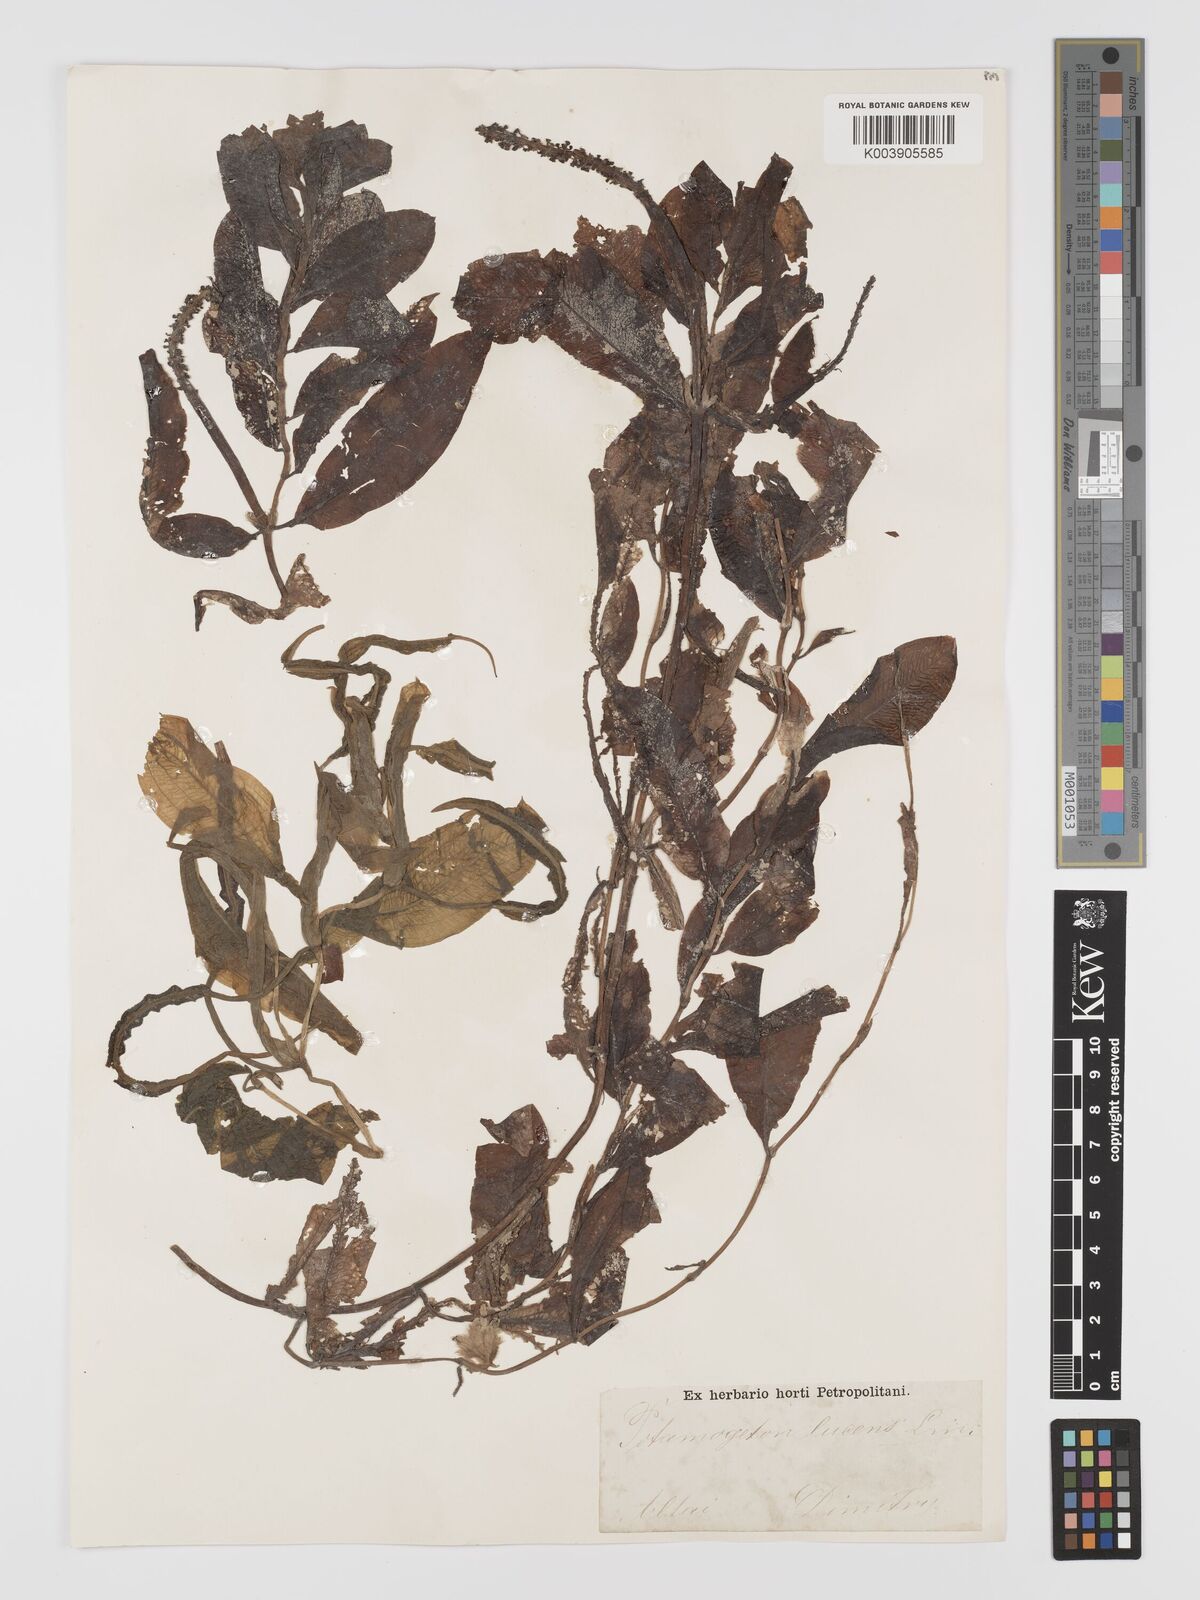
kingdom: Plantae
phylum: Tracheophyta
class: Liliopsida
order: Alismatales
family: Potamogetonaceae
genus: Potamogeton
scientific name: Potamogeton lucens
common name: Shining pondweed
